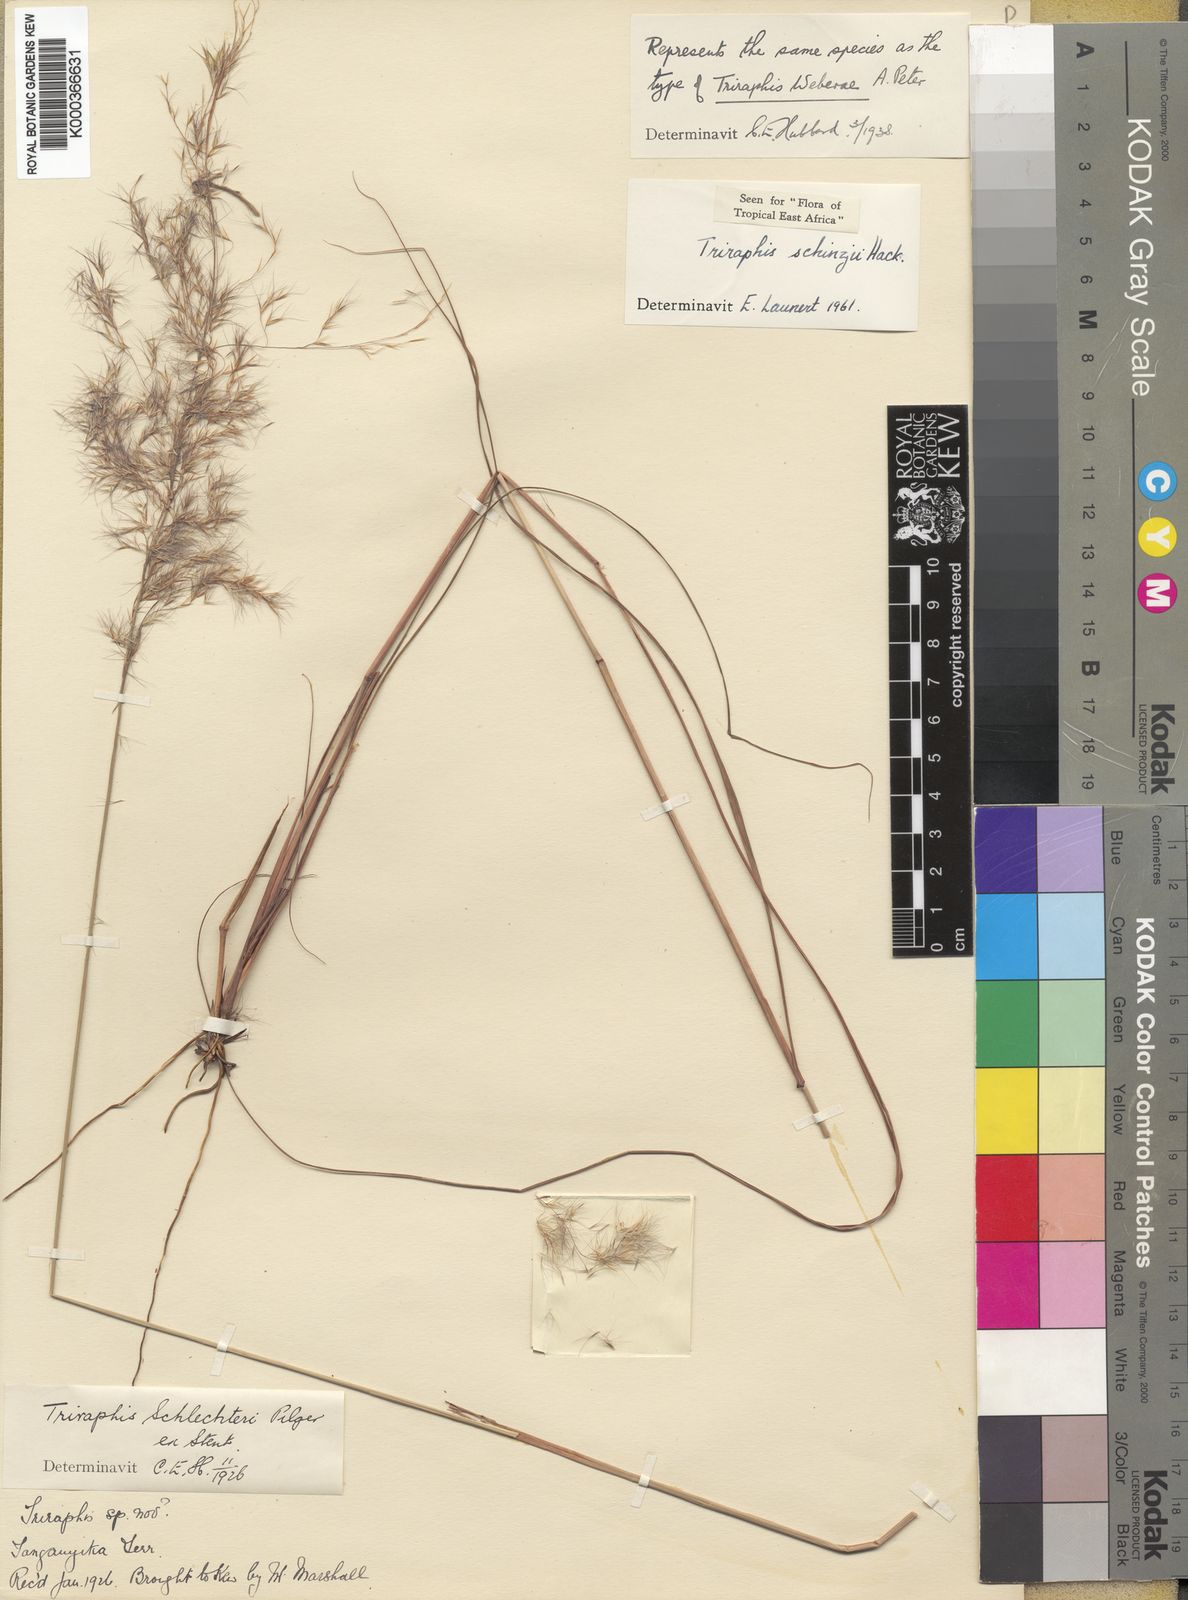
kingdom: Plantae
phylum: Tracheophyta
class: Liliopsida
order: Poales
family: Poaceae
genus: Triraphis
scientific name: Triraphis schinzii
